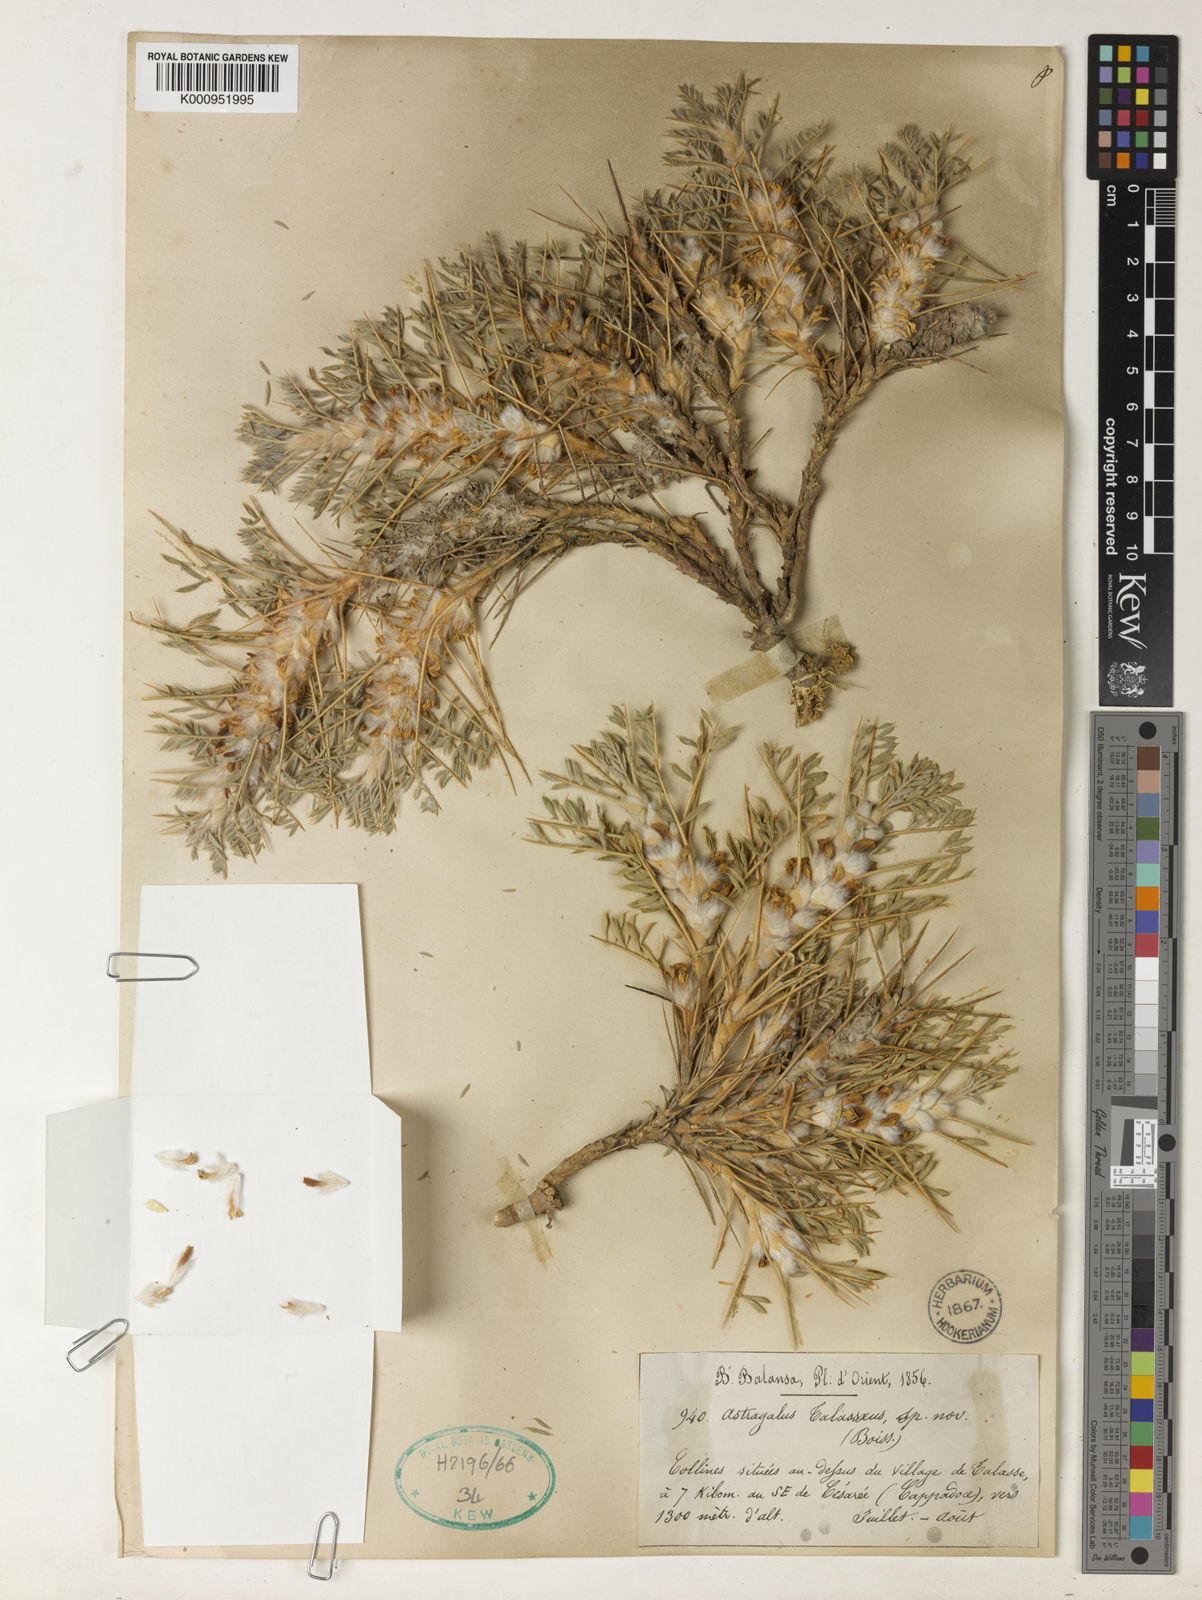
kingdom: Plantae
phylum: Tracheophyta
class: Magnoliopsida
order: Fabales
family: Fabaceae
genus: Astragalus
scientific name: Astragalus
